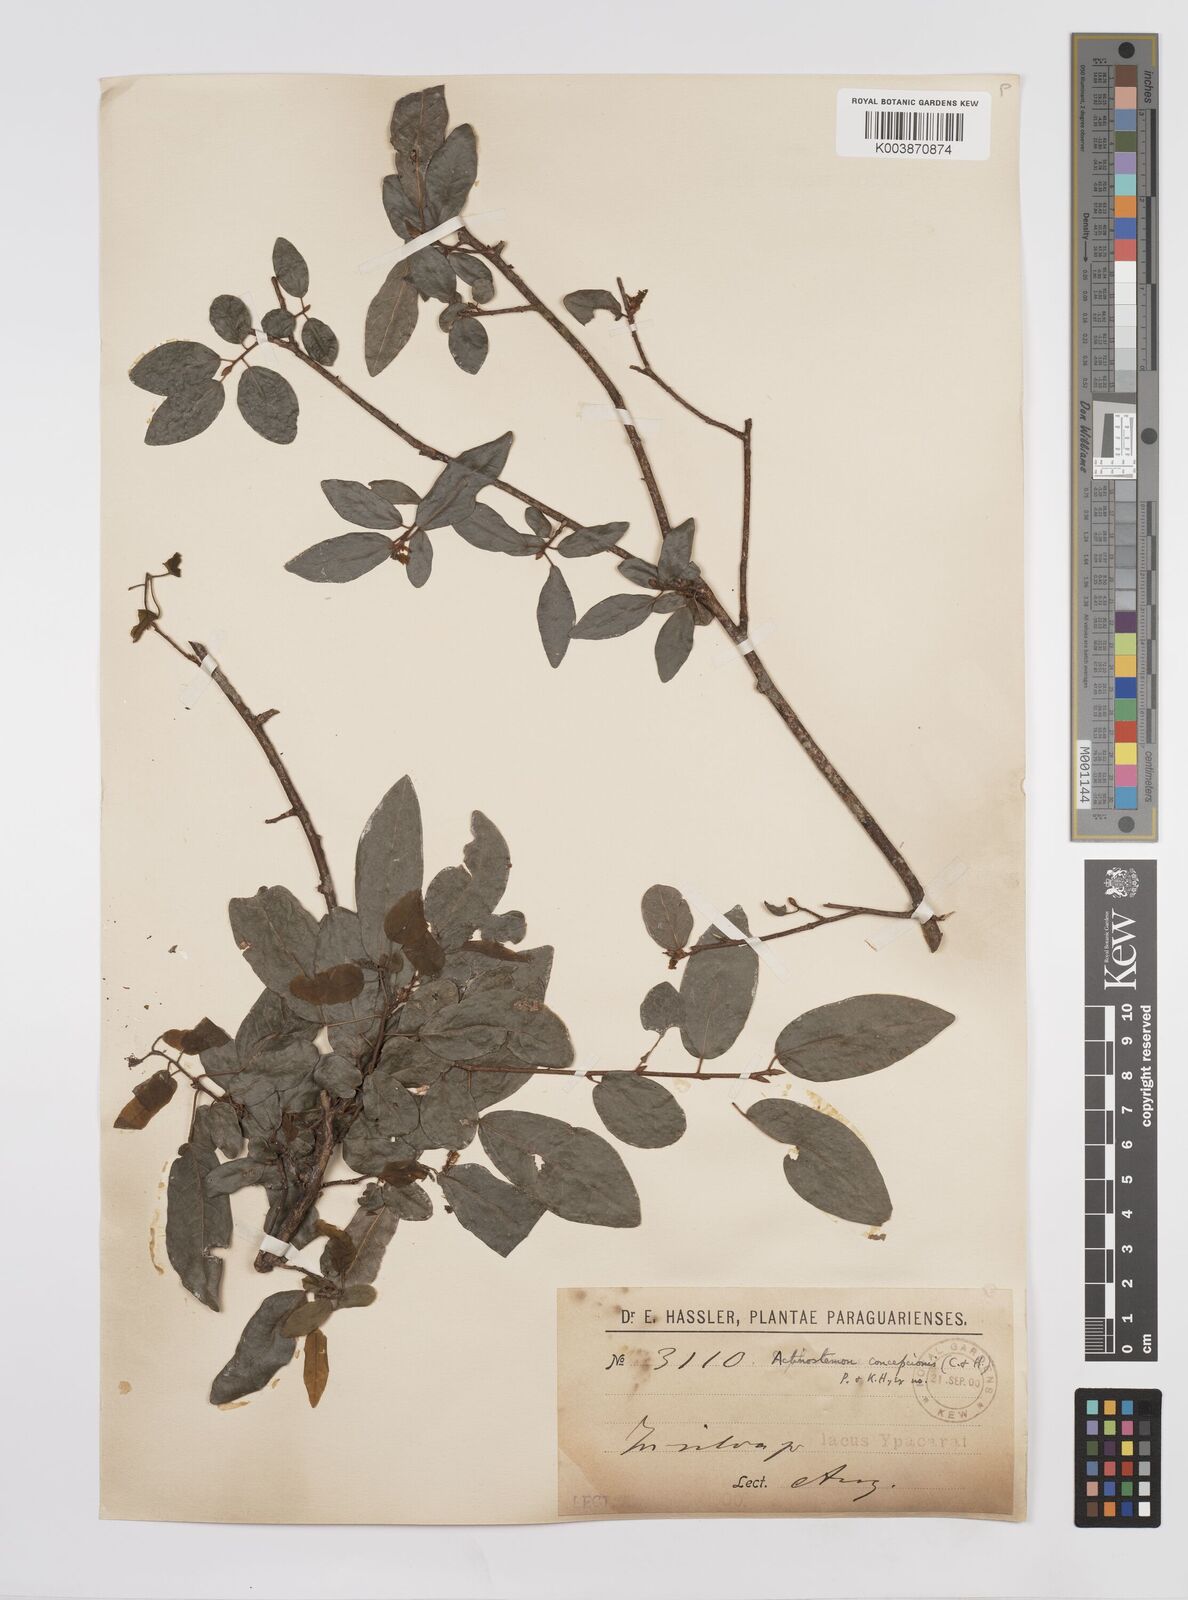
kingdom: Plantae
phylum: Tracheophyta
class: Magnoliopsida
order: Malpighiales
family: Euphorbiaceae
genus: Actinostemon
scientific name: Actinostemon concepcionis
